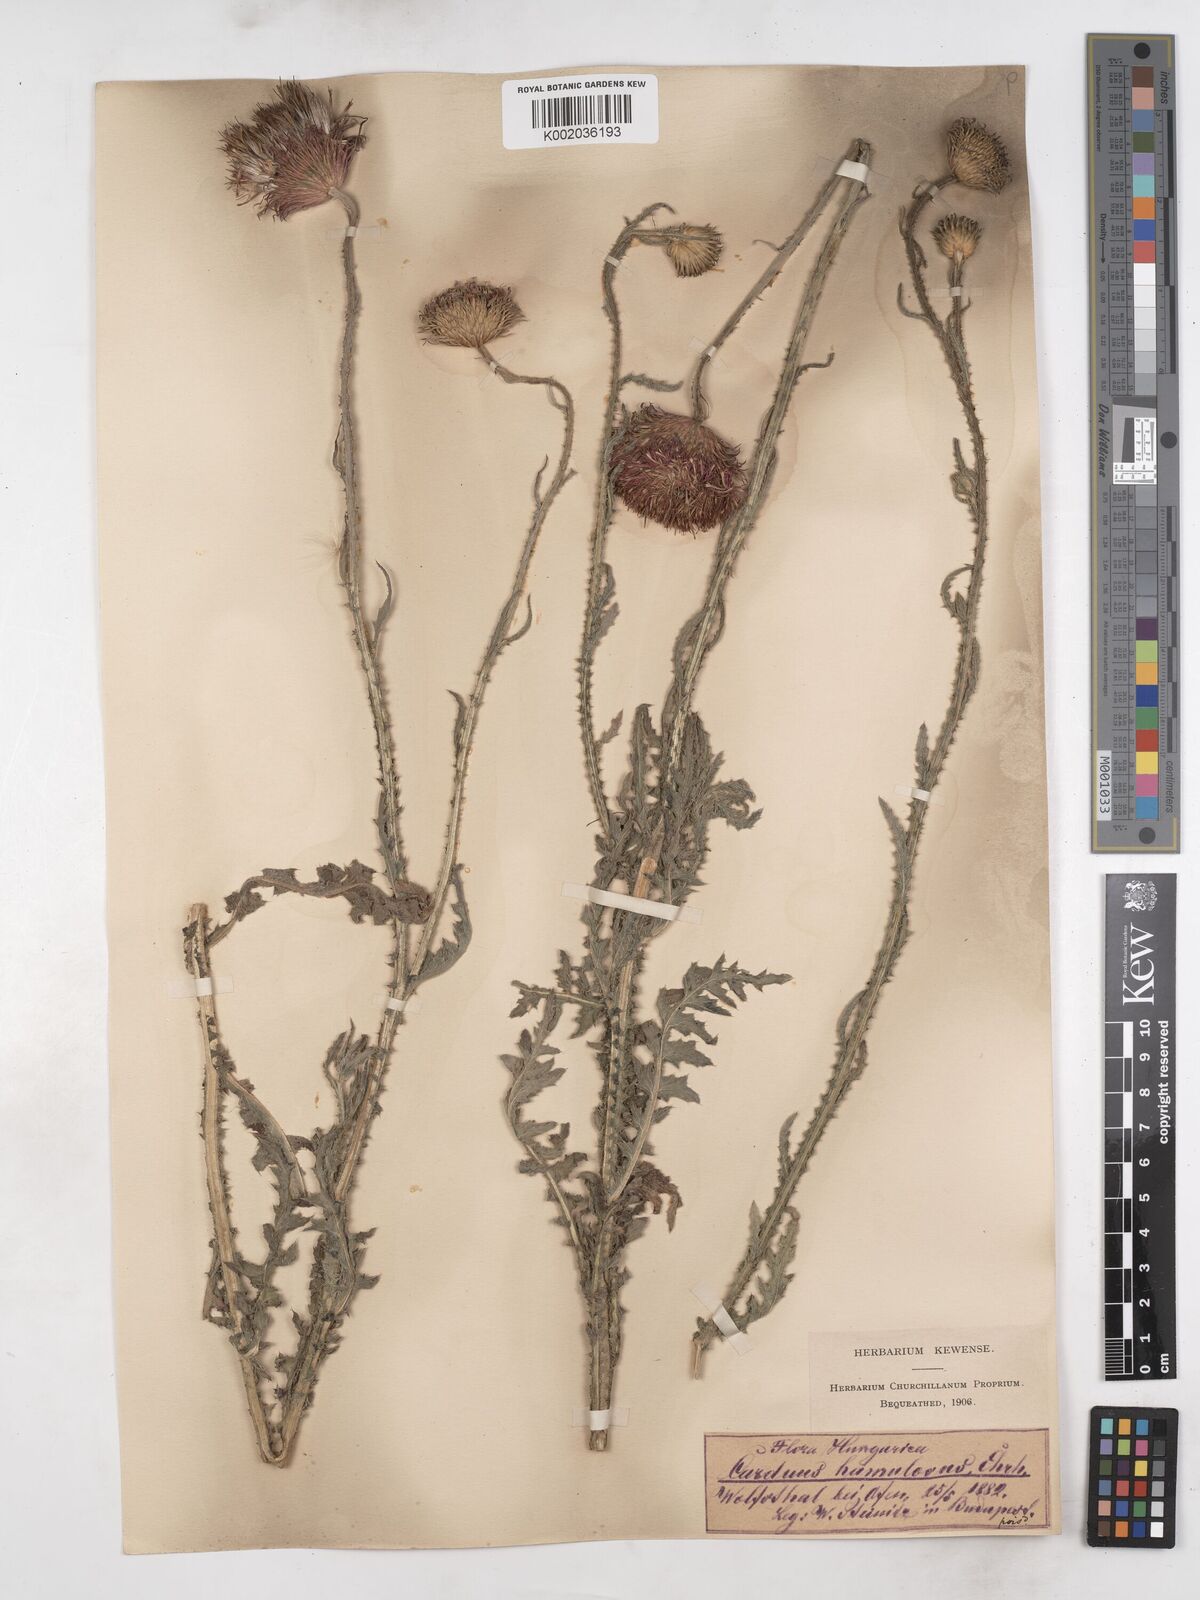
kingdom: Plantae
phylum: Tracheophyta
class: Magnoliopsida
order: Asterales
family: Asteraceae
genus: Carduus
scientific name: Carduus hamulosus
